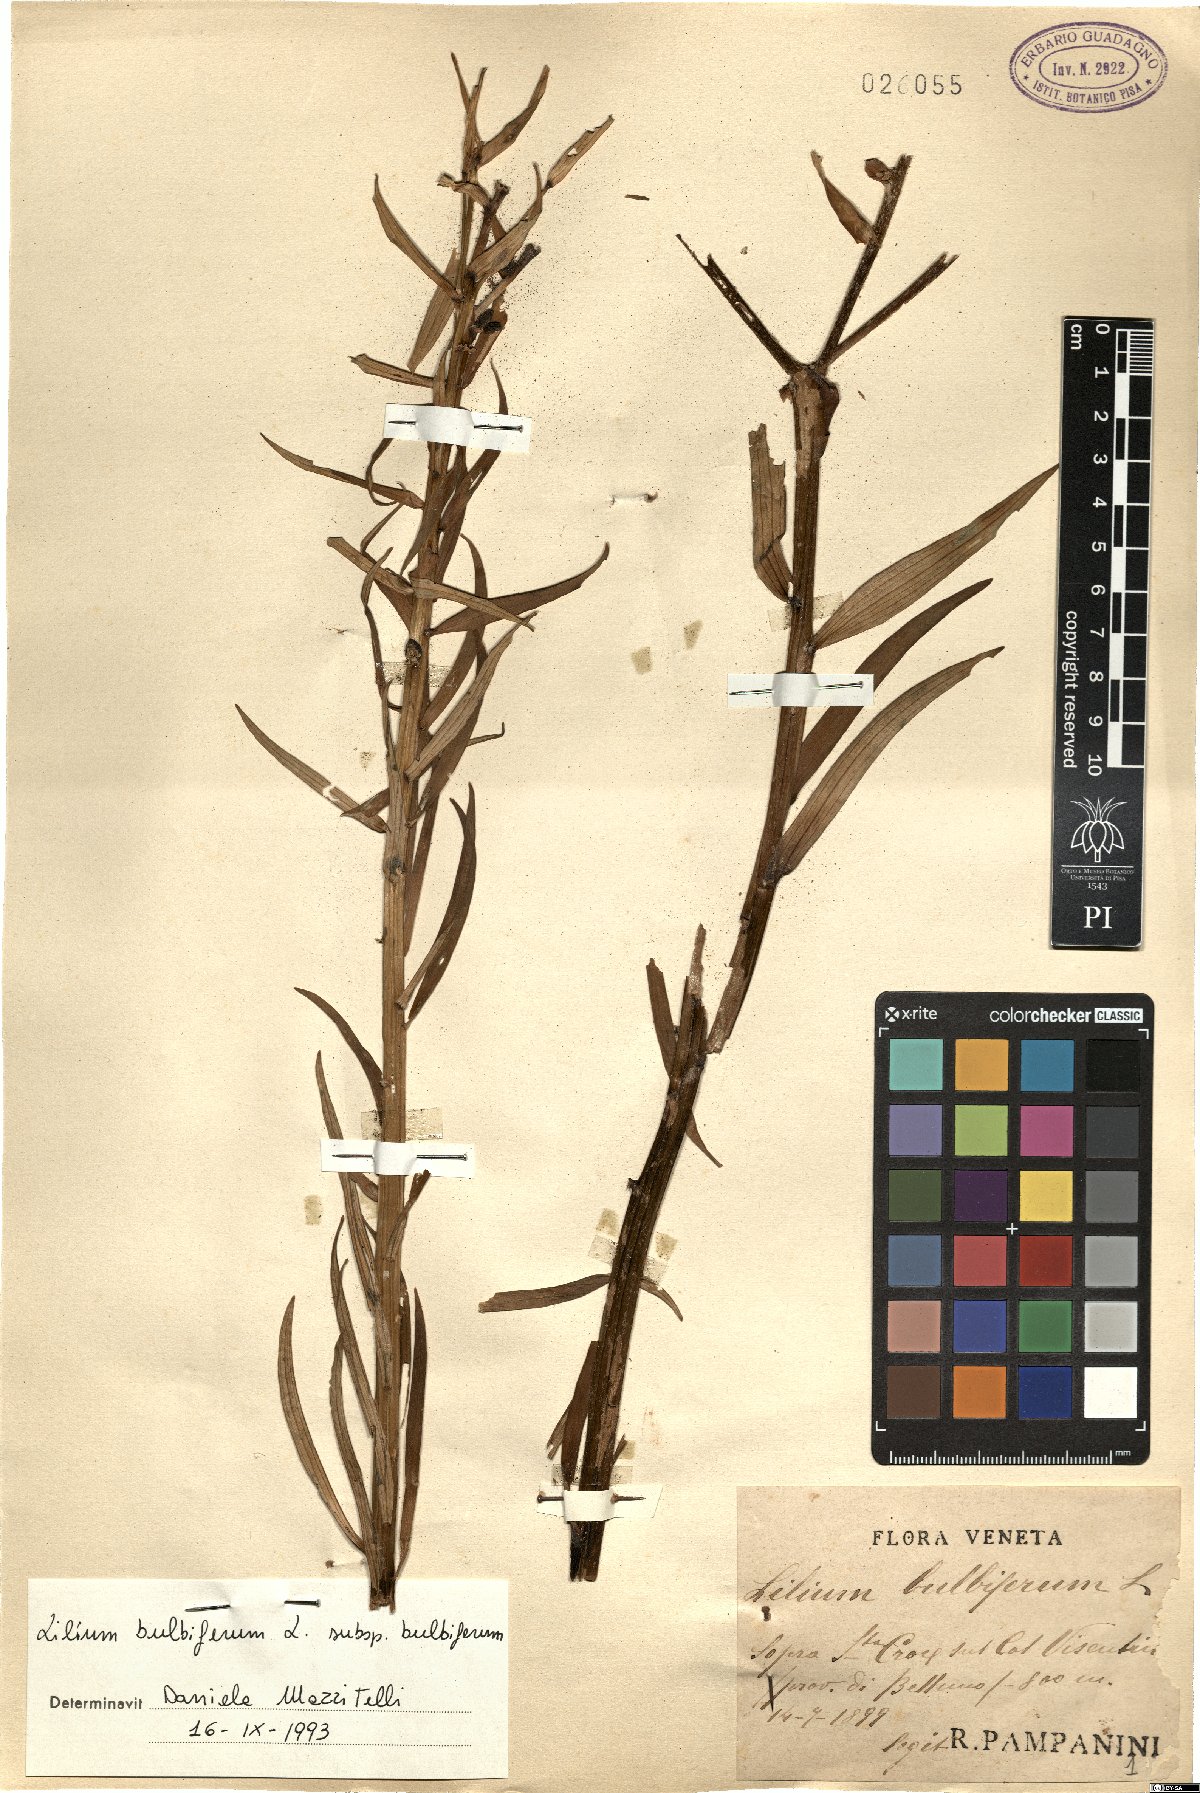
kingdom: Plantae
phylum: Tracheophyta
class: Liliopsida
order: Liliales
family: Liliaceae
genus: Lilium
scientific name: Lilium bulbiferum
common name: Orange lily
